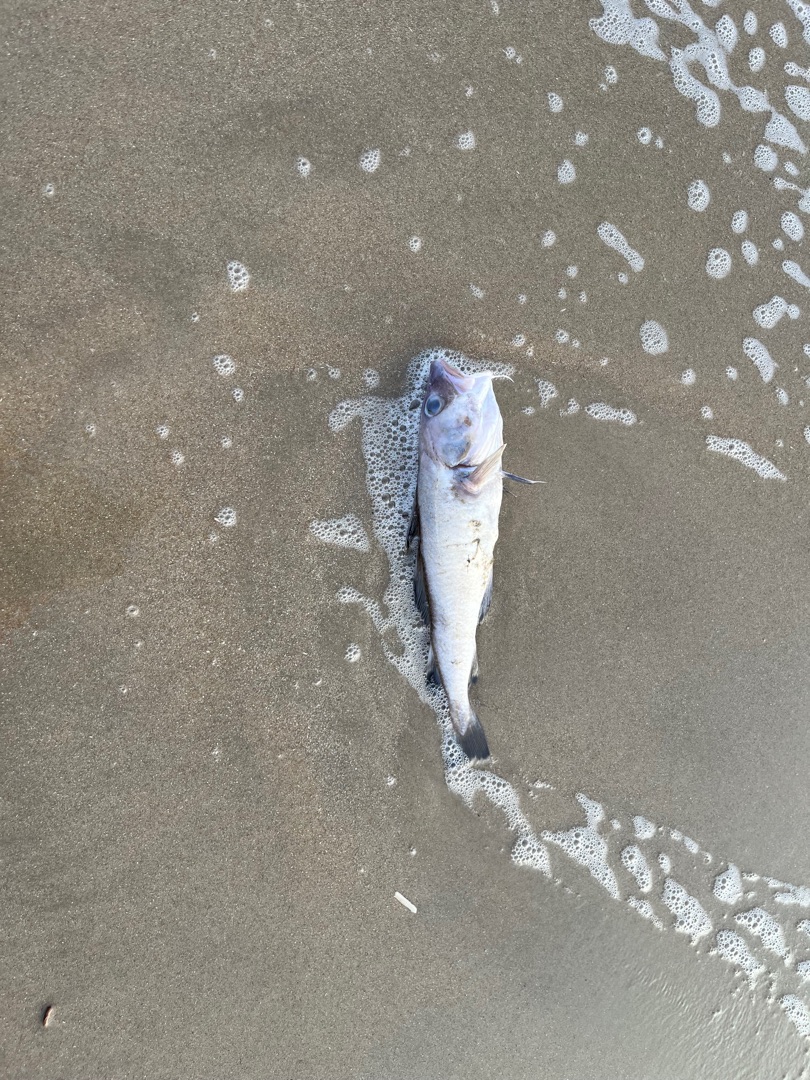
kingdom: Animalia
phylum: Chordata
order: Gadiformes
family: Gadidae
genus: Gadus
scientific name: Gadus morhua
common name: Torsk
